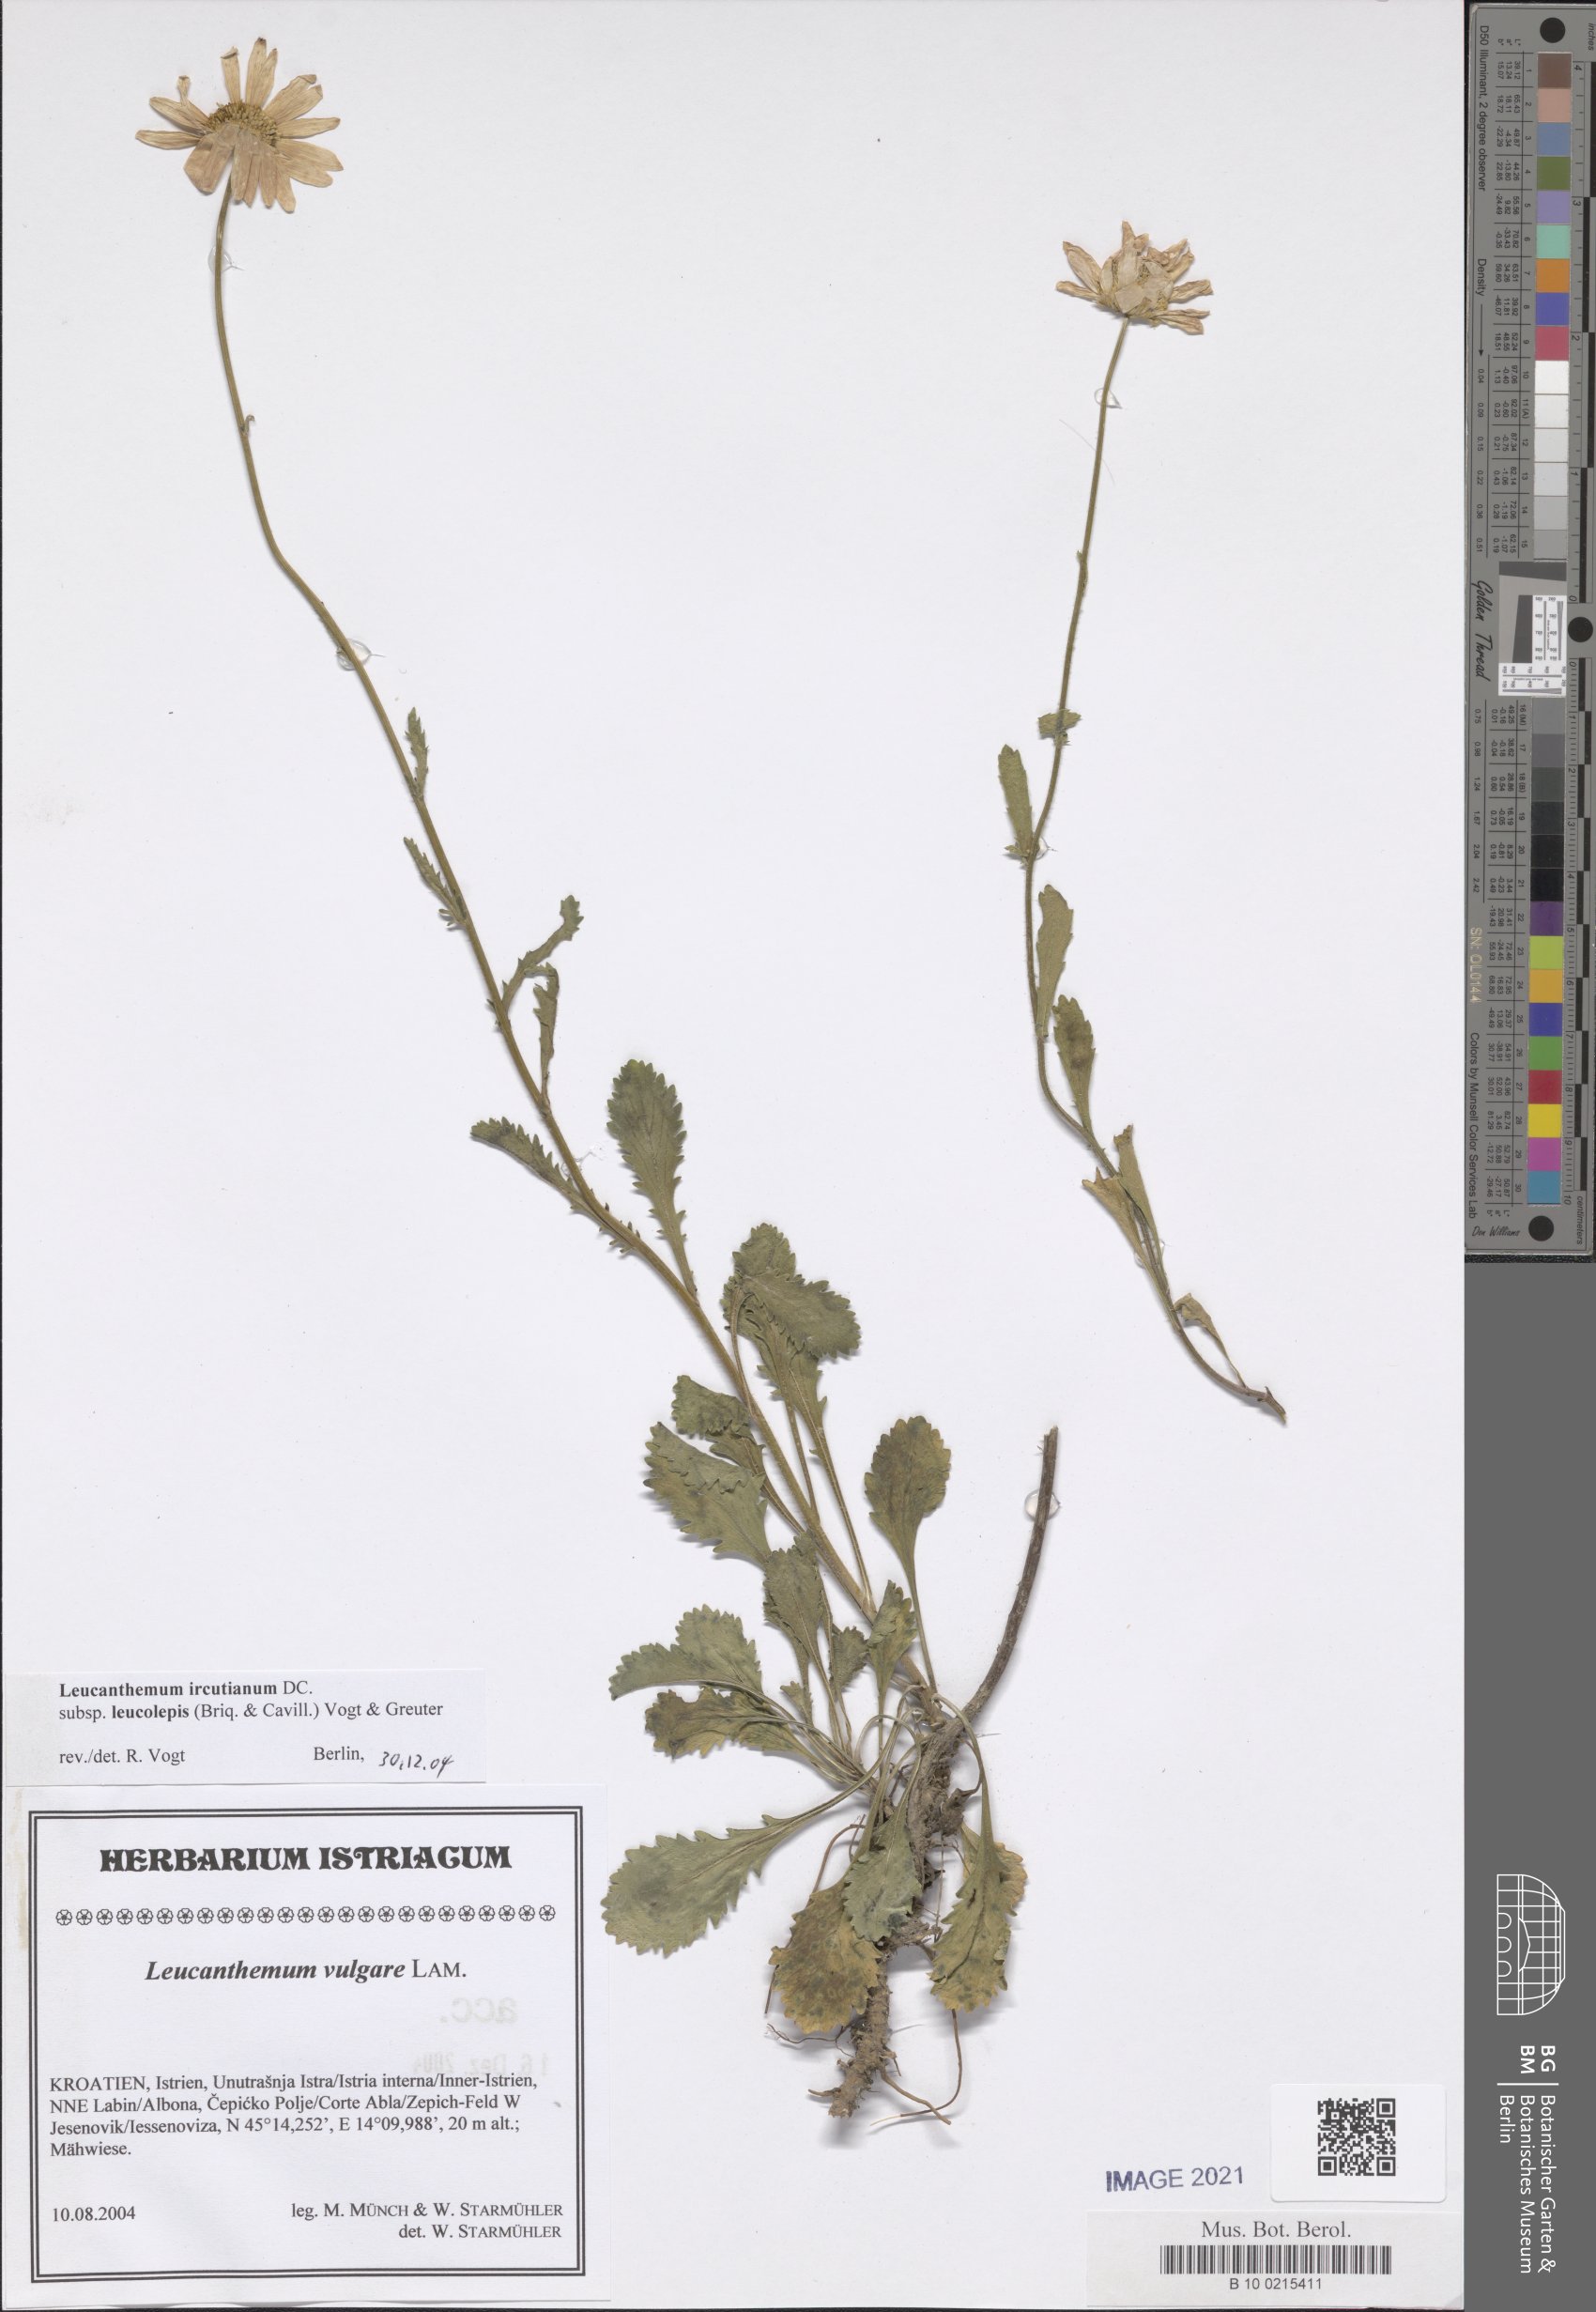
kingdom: Plantae
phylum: Tracheophyta
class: Magnoliopsida
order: Asterales
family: Asteraceae
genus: Leucanthemum
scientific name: Leucanthemum ircutianum
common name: Daisy
